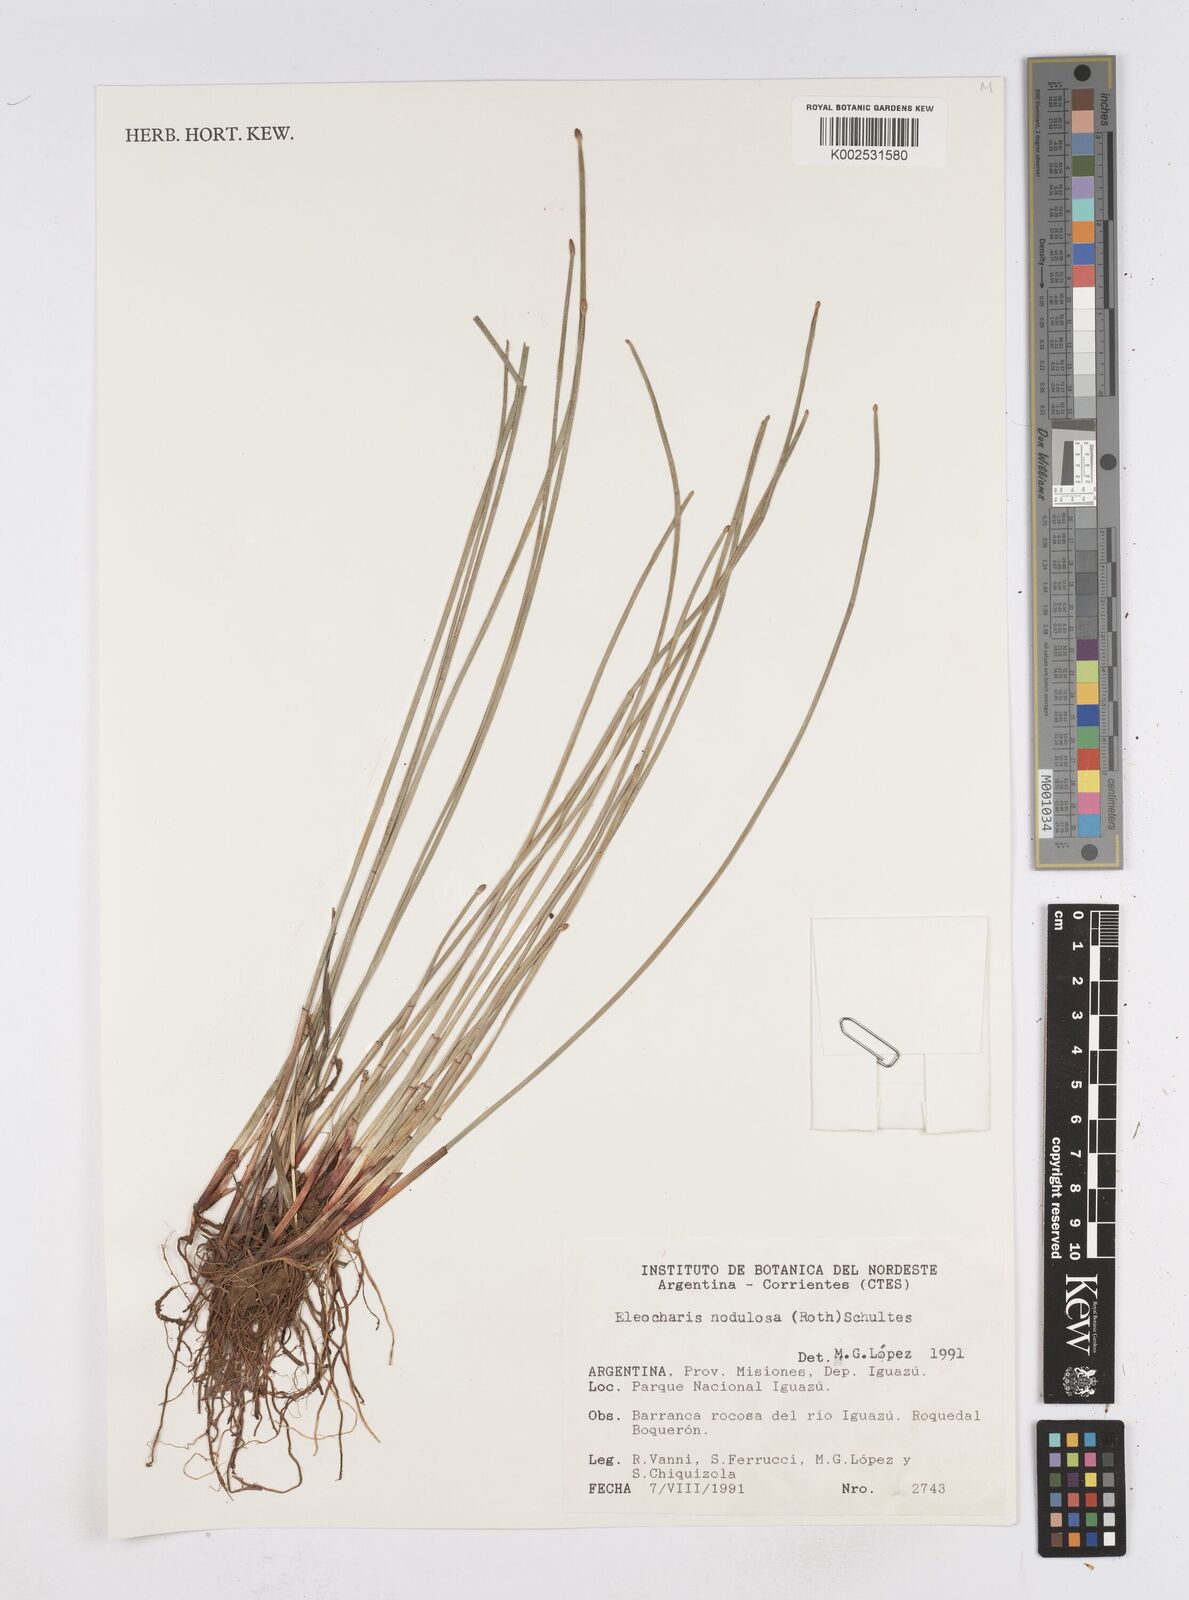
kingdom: Plantae
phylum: Tracheophyta
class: Liliopsida
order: Poales
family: Cyperaceae
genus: Eleocharis
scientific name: Eleocharis montana
